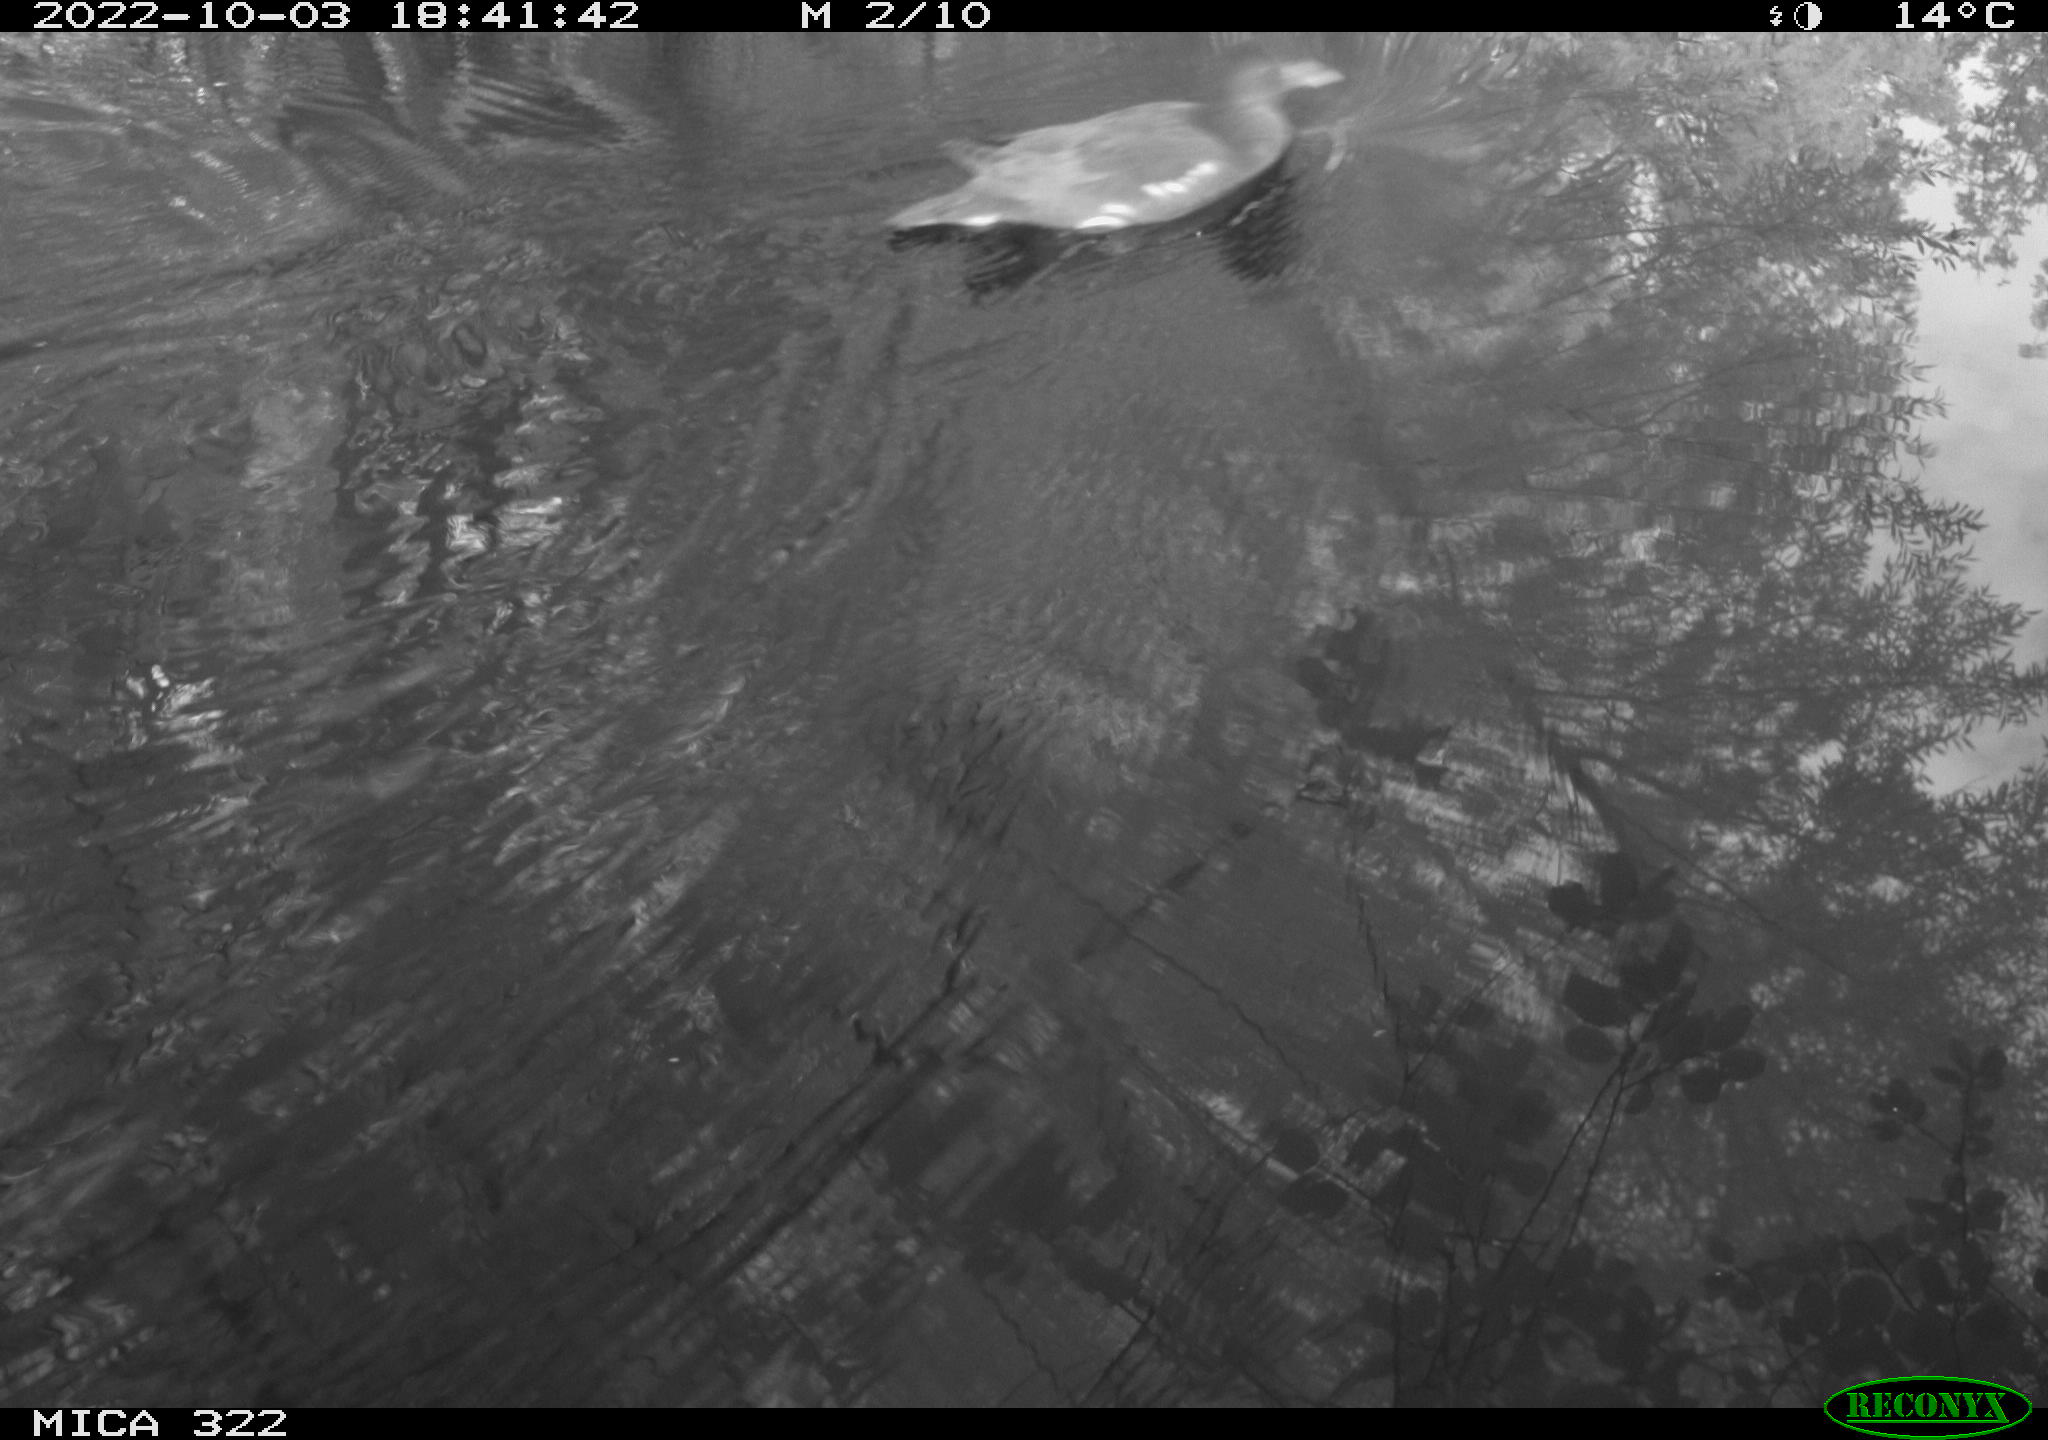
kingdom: Animalia
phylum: Chordata
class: Aves
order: Gruiformes
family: Rallidae
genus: Gallinula
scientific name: Gallinula chloropus
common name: Common moorhen
